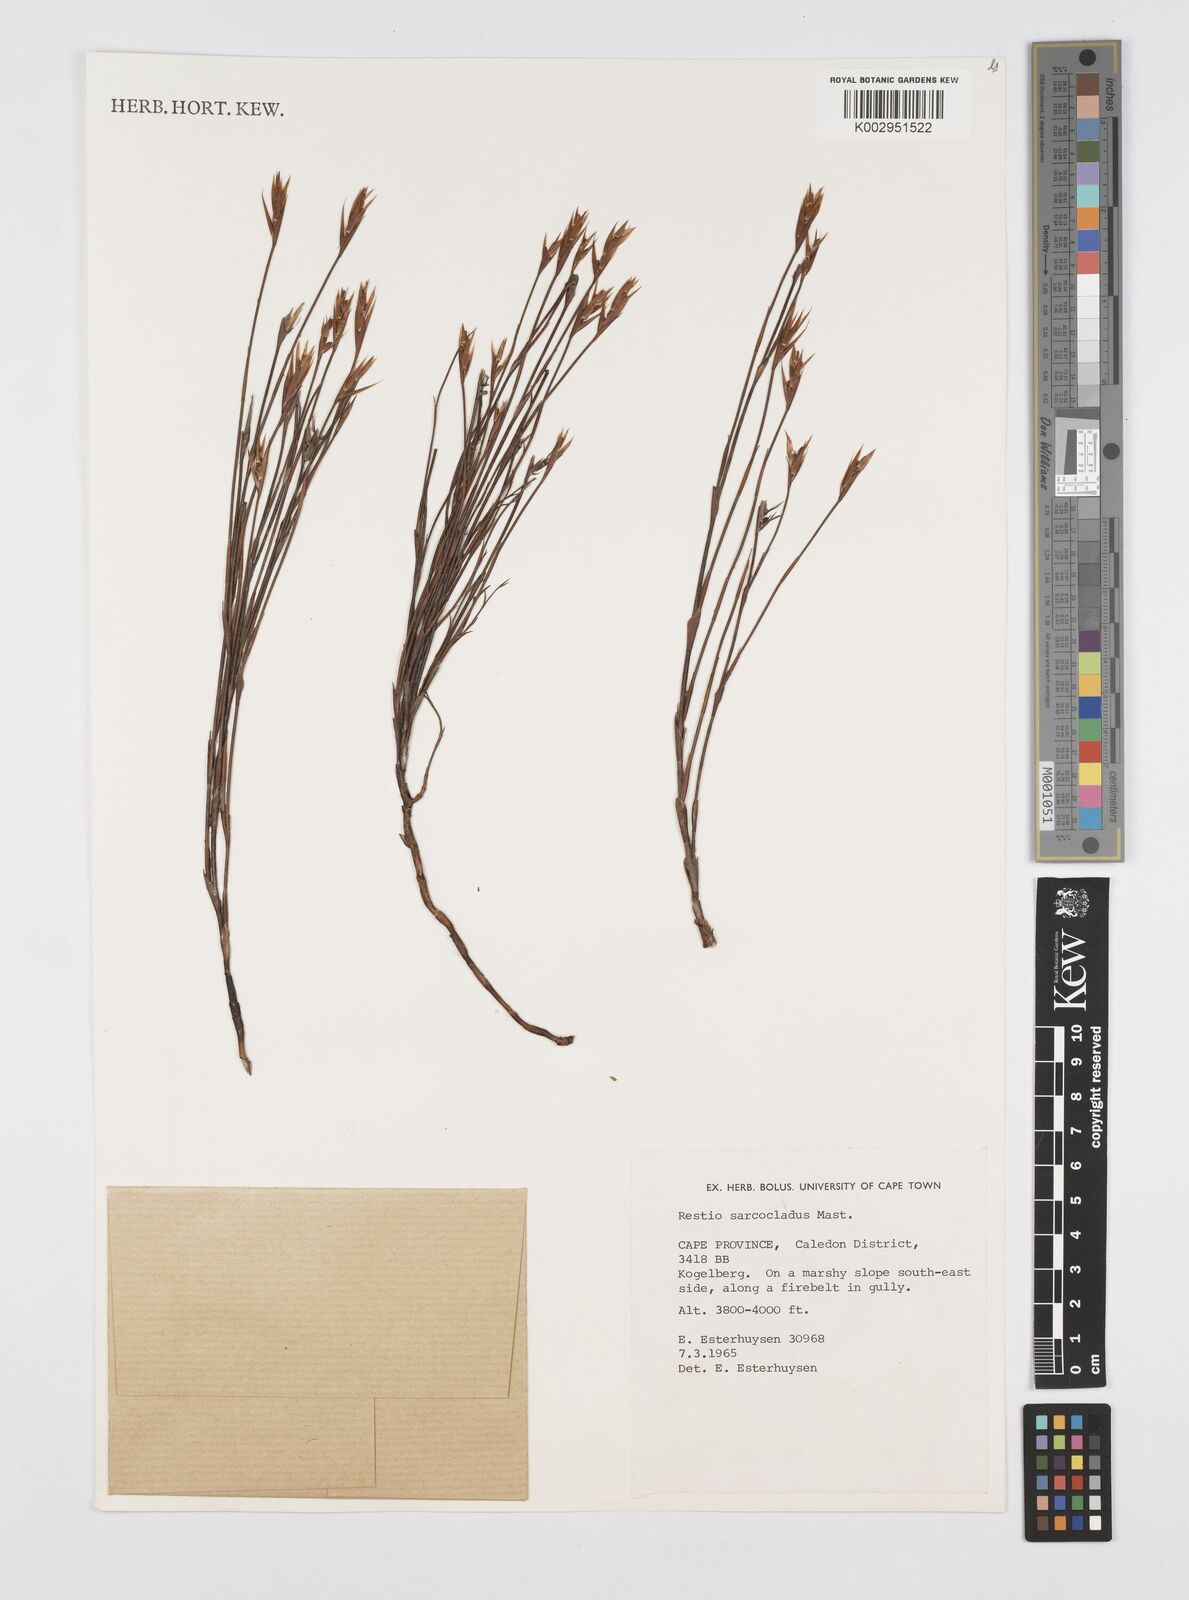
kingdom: Plantae
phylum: Tracheophyta
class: Liliopsida
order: Poales
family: Restionaceae
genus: Restio
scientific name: Restio saroclados
